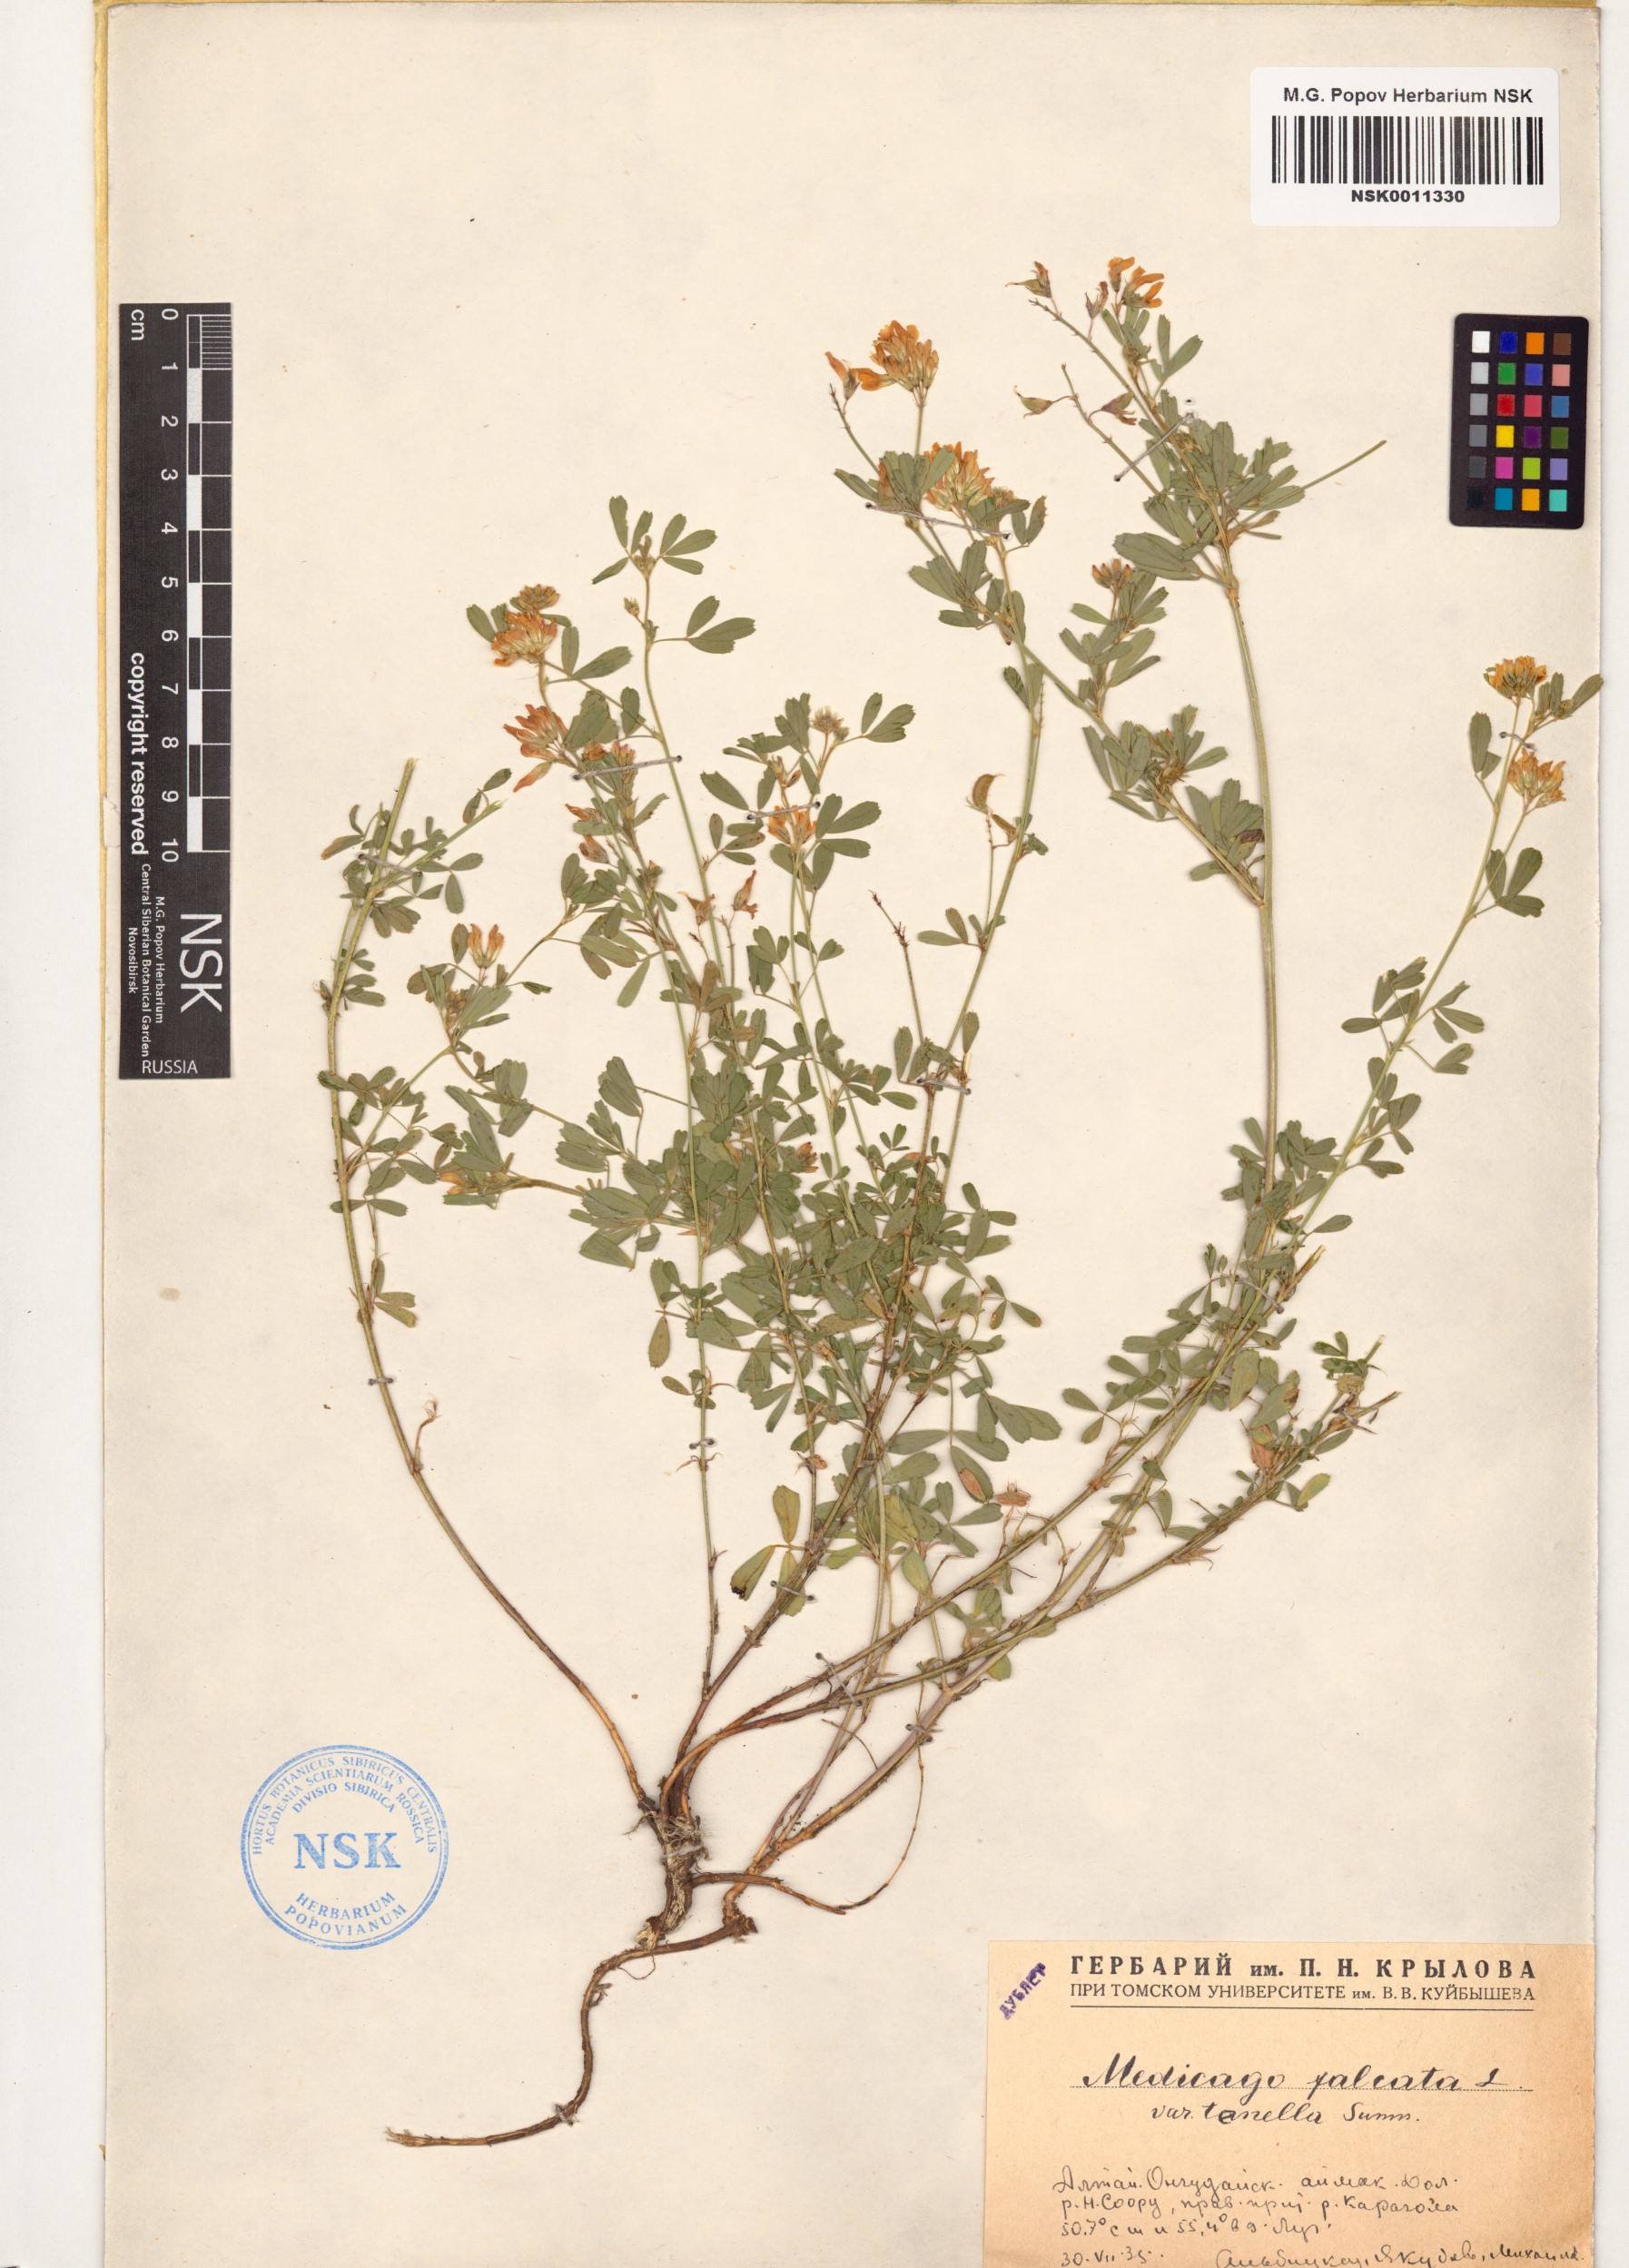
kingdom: Plantae
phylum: Tracheophyta
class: Magnoliopsida
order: Fabales
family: Fabaceae
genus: Medicago
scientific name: Medicago falcata
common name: Sickle medick
